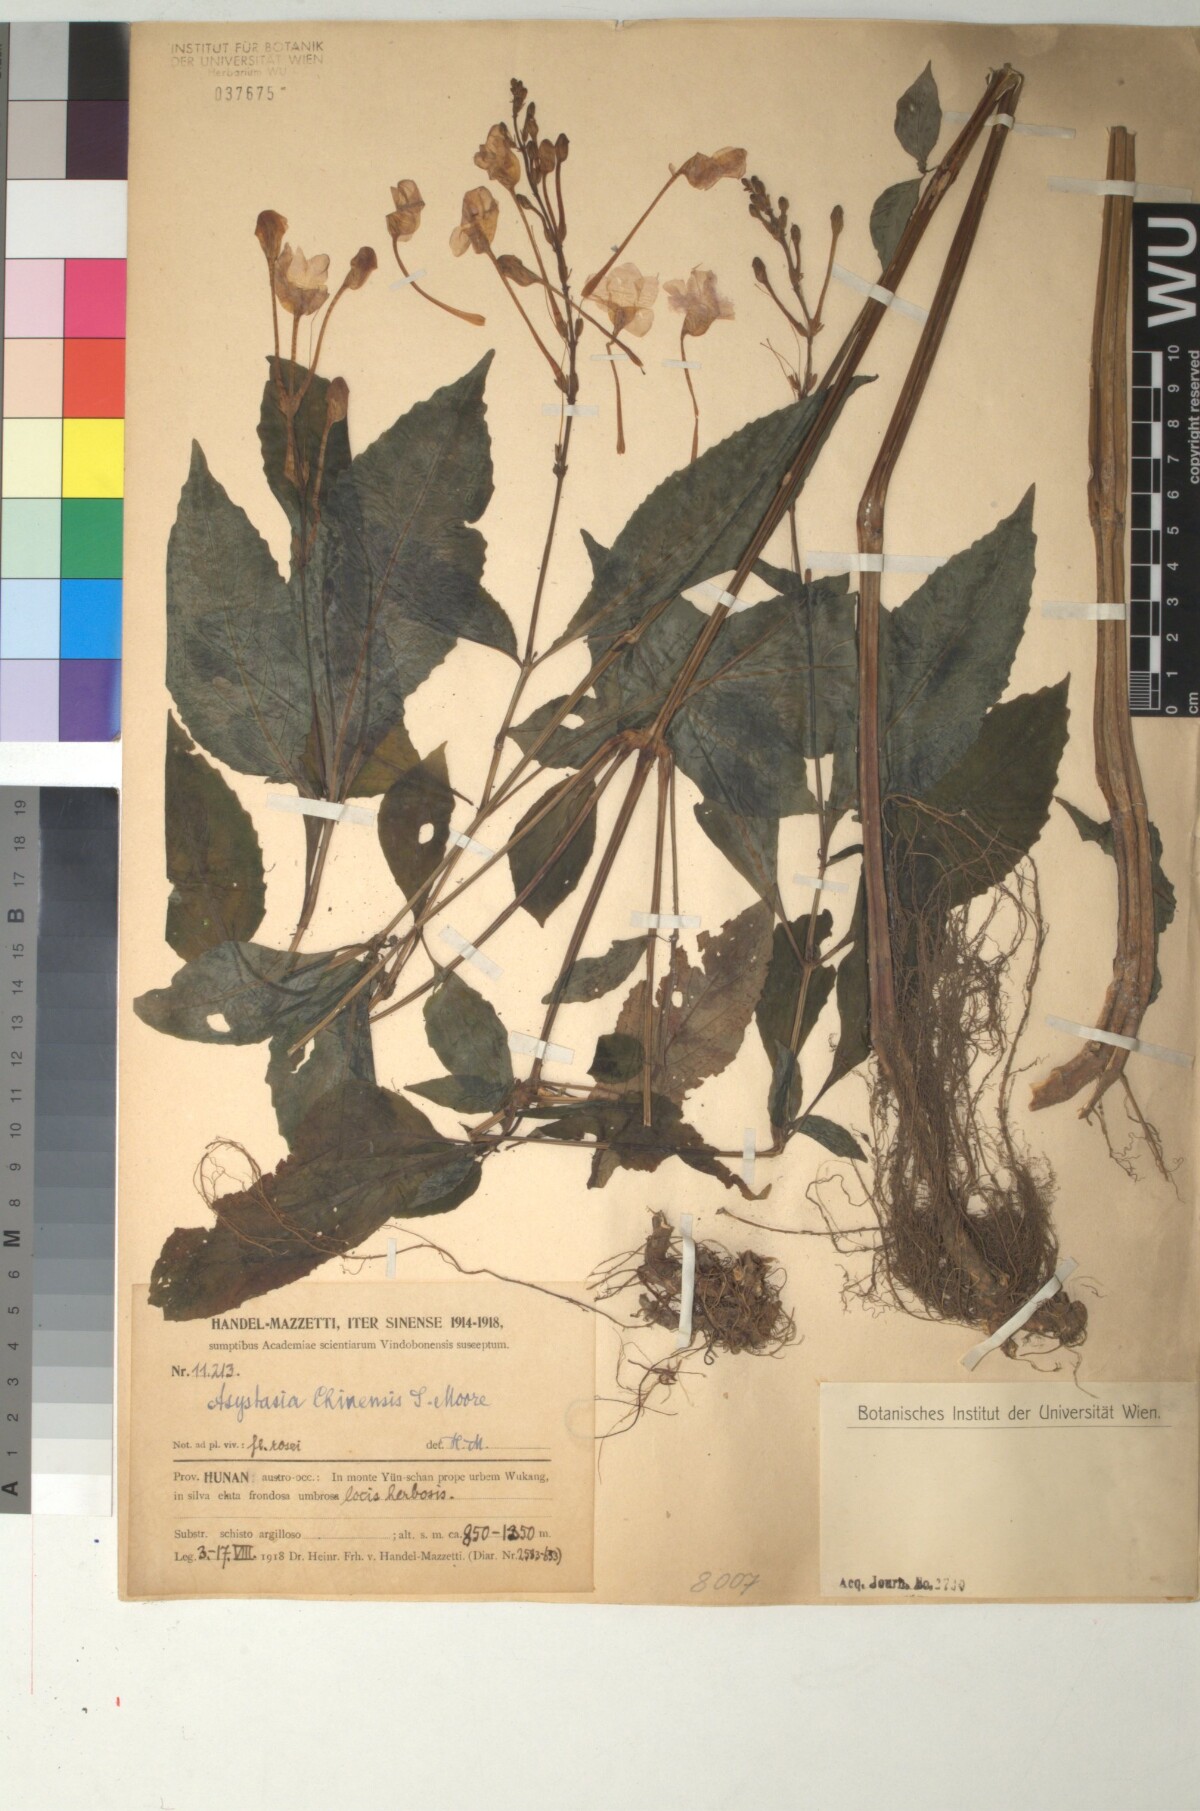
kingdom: Plantae
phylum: Tracheophyta
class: Magnoliopsida
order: Lamiales
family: Acanthaceae
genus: Mackaya
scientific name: Mackaya neesiana
